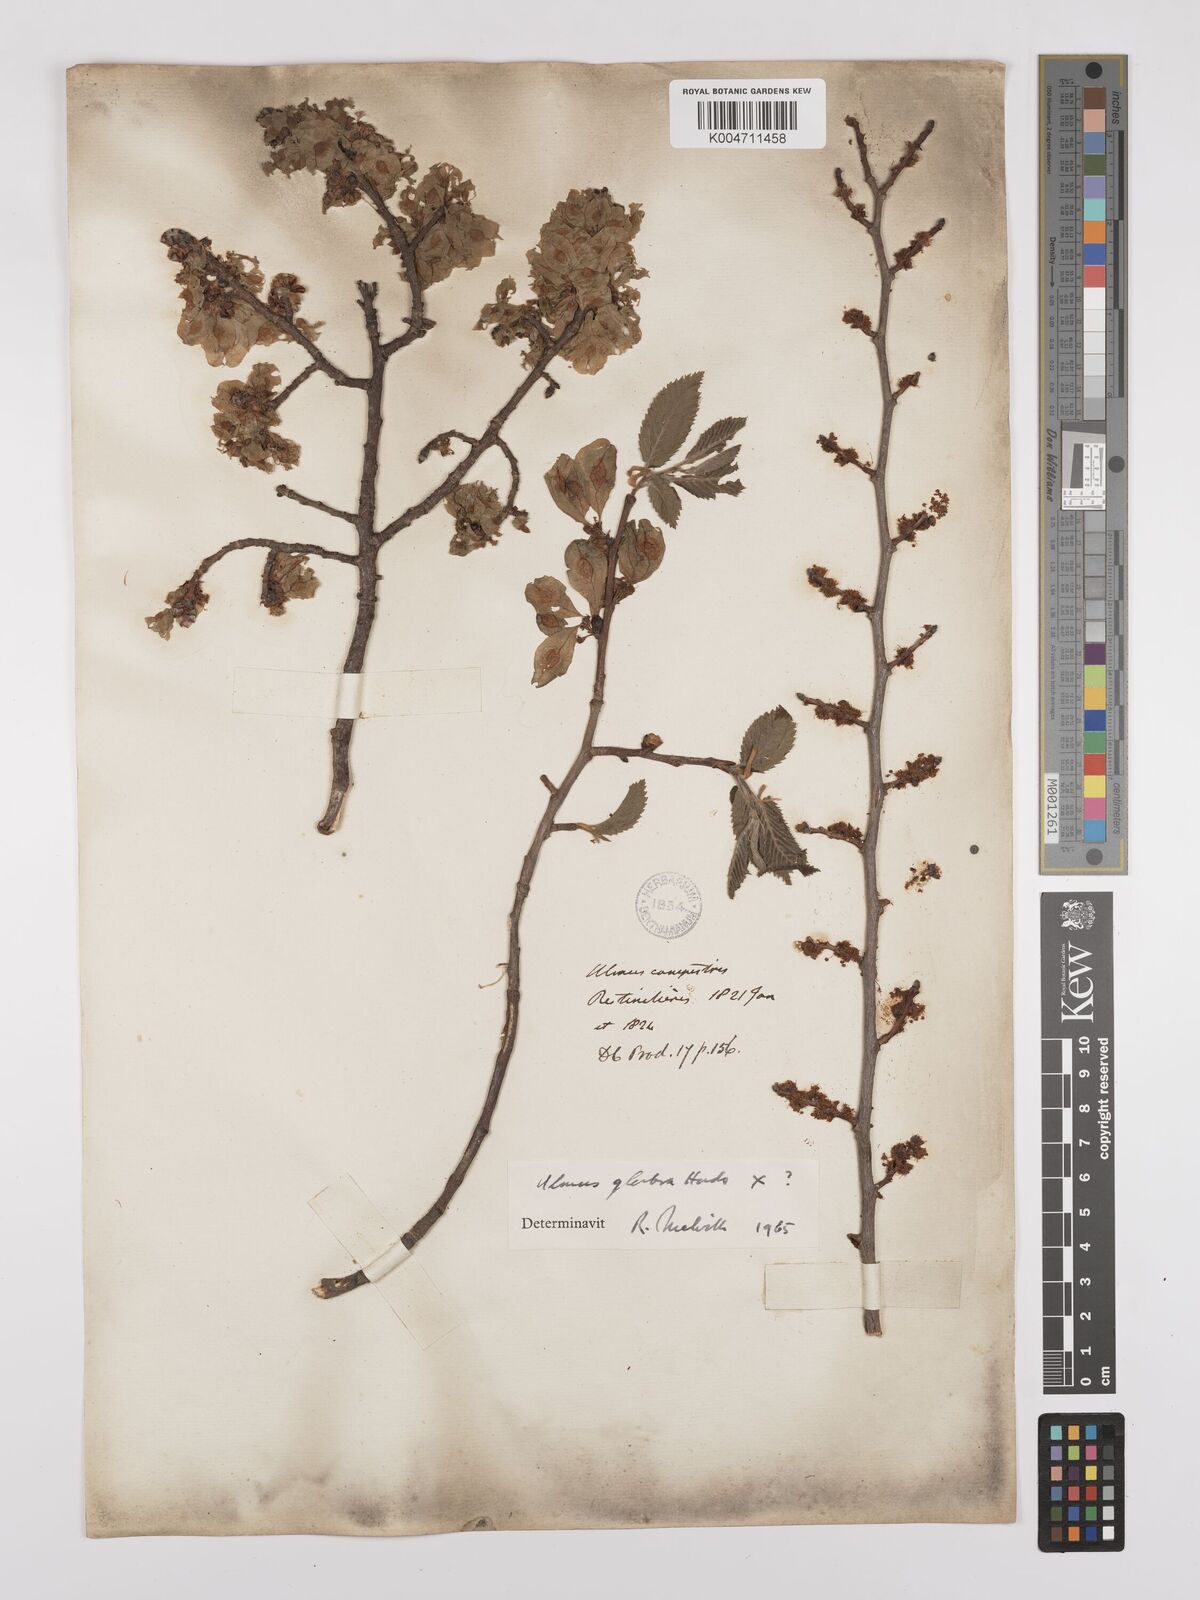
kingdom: Plantae
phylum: Tracheophyta
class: Magnoliopsida
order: Rosales
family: Ulmaceae
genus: Ulmus
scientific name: Ulmus minor
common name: Small-leaved elm
